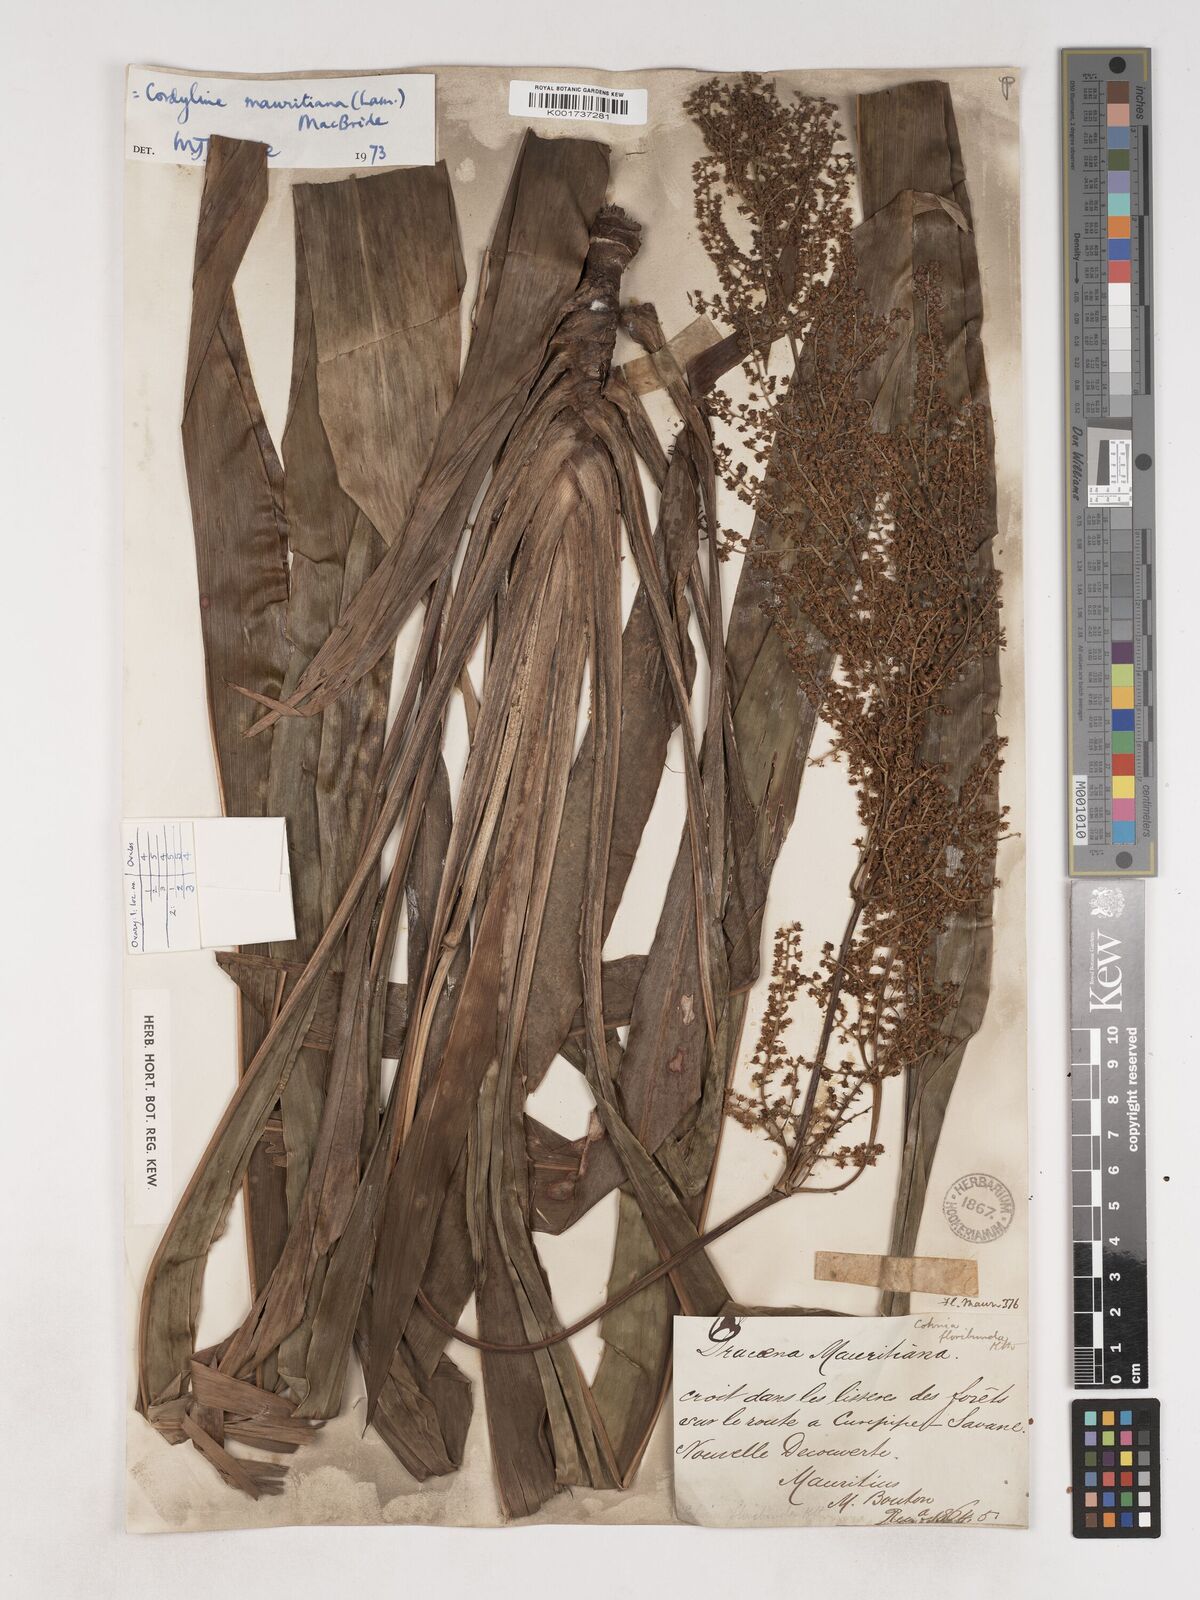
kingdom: Plantae
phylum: Tracheophyta
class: Liliopsida
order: Asparagales
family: Asparagaceae
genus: Cordyline
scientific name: Cordyline mauritiana
